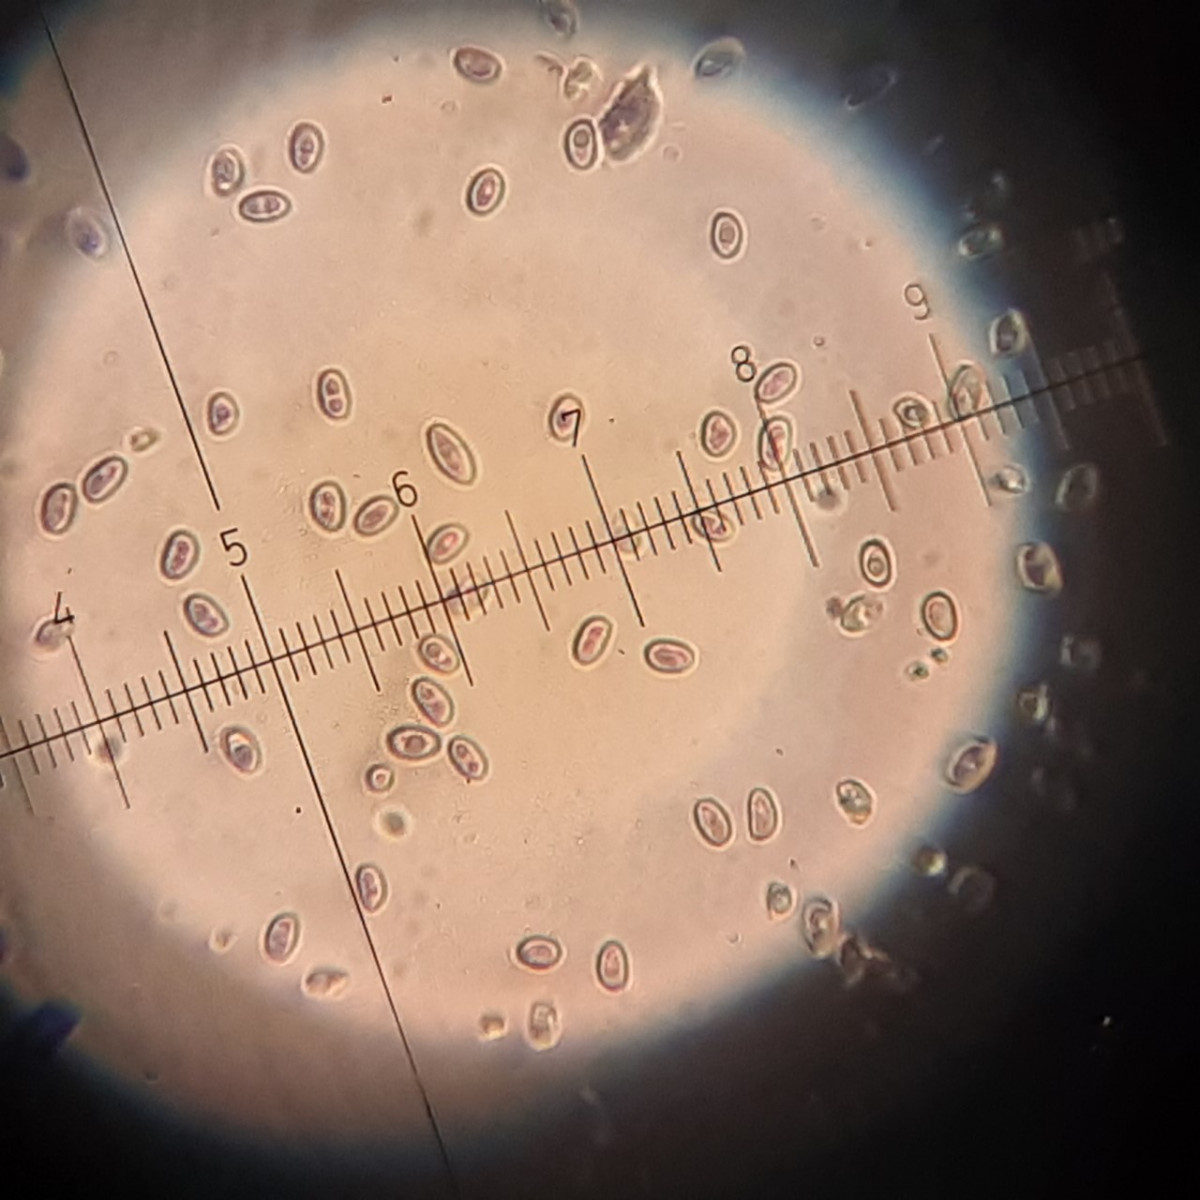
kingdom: Fungi
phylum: Basidiomycota
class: Agaricomycetes
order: Agaricales
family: Strophariaceae
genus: Pholiota
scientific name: Pholiota gummosa
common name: grøngul skælhat
